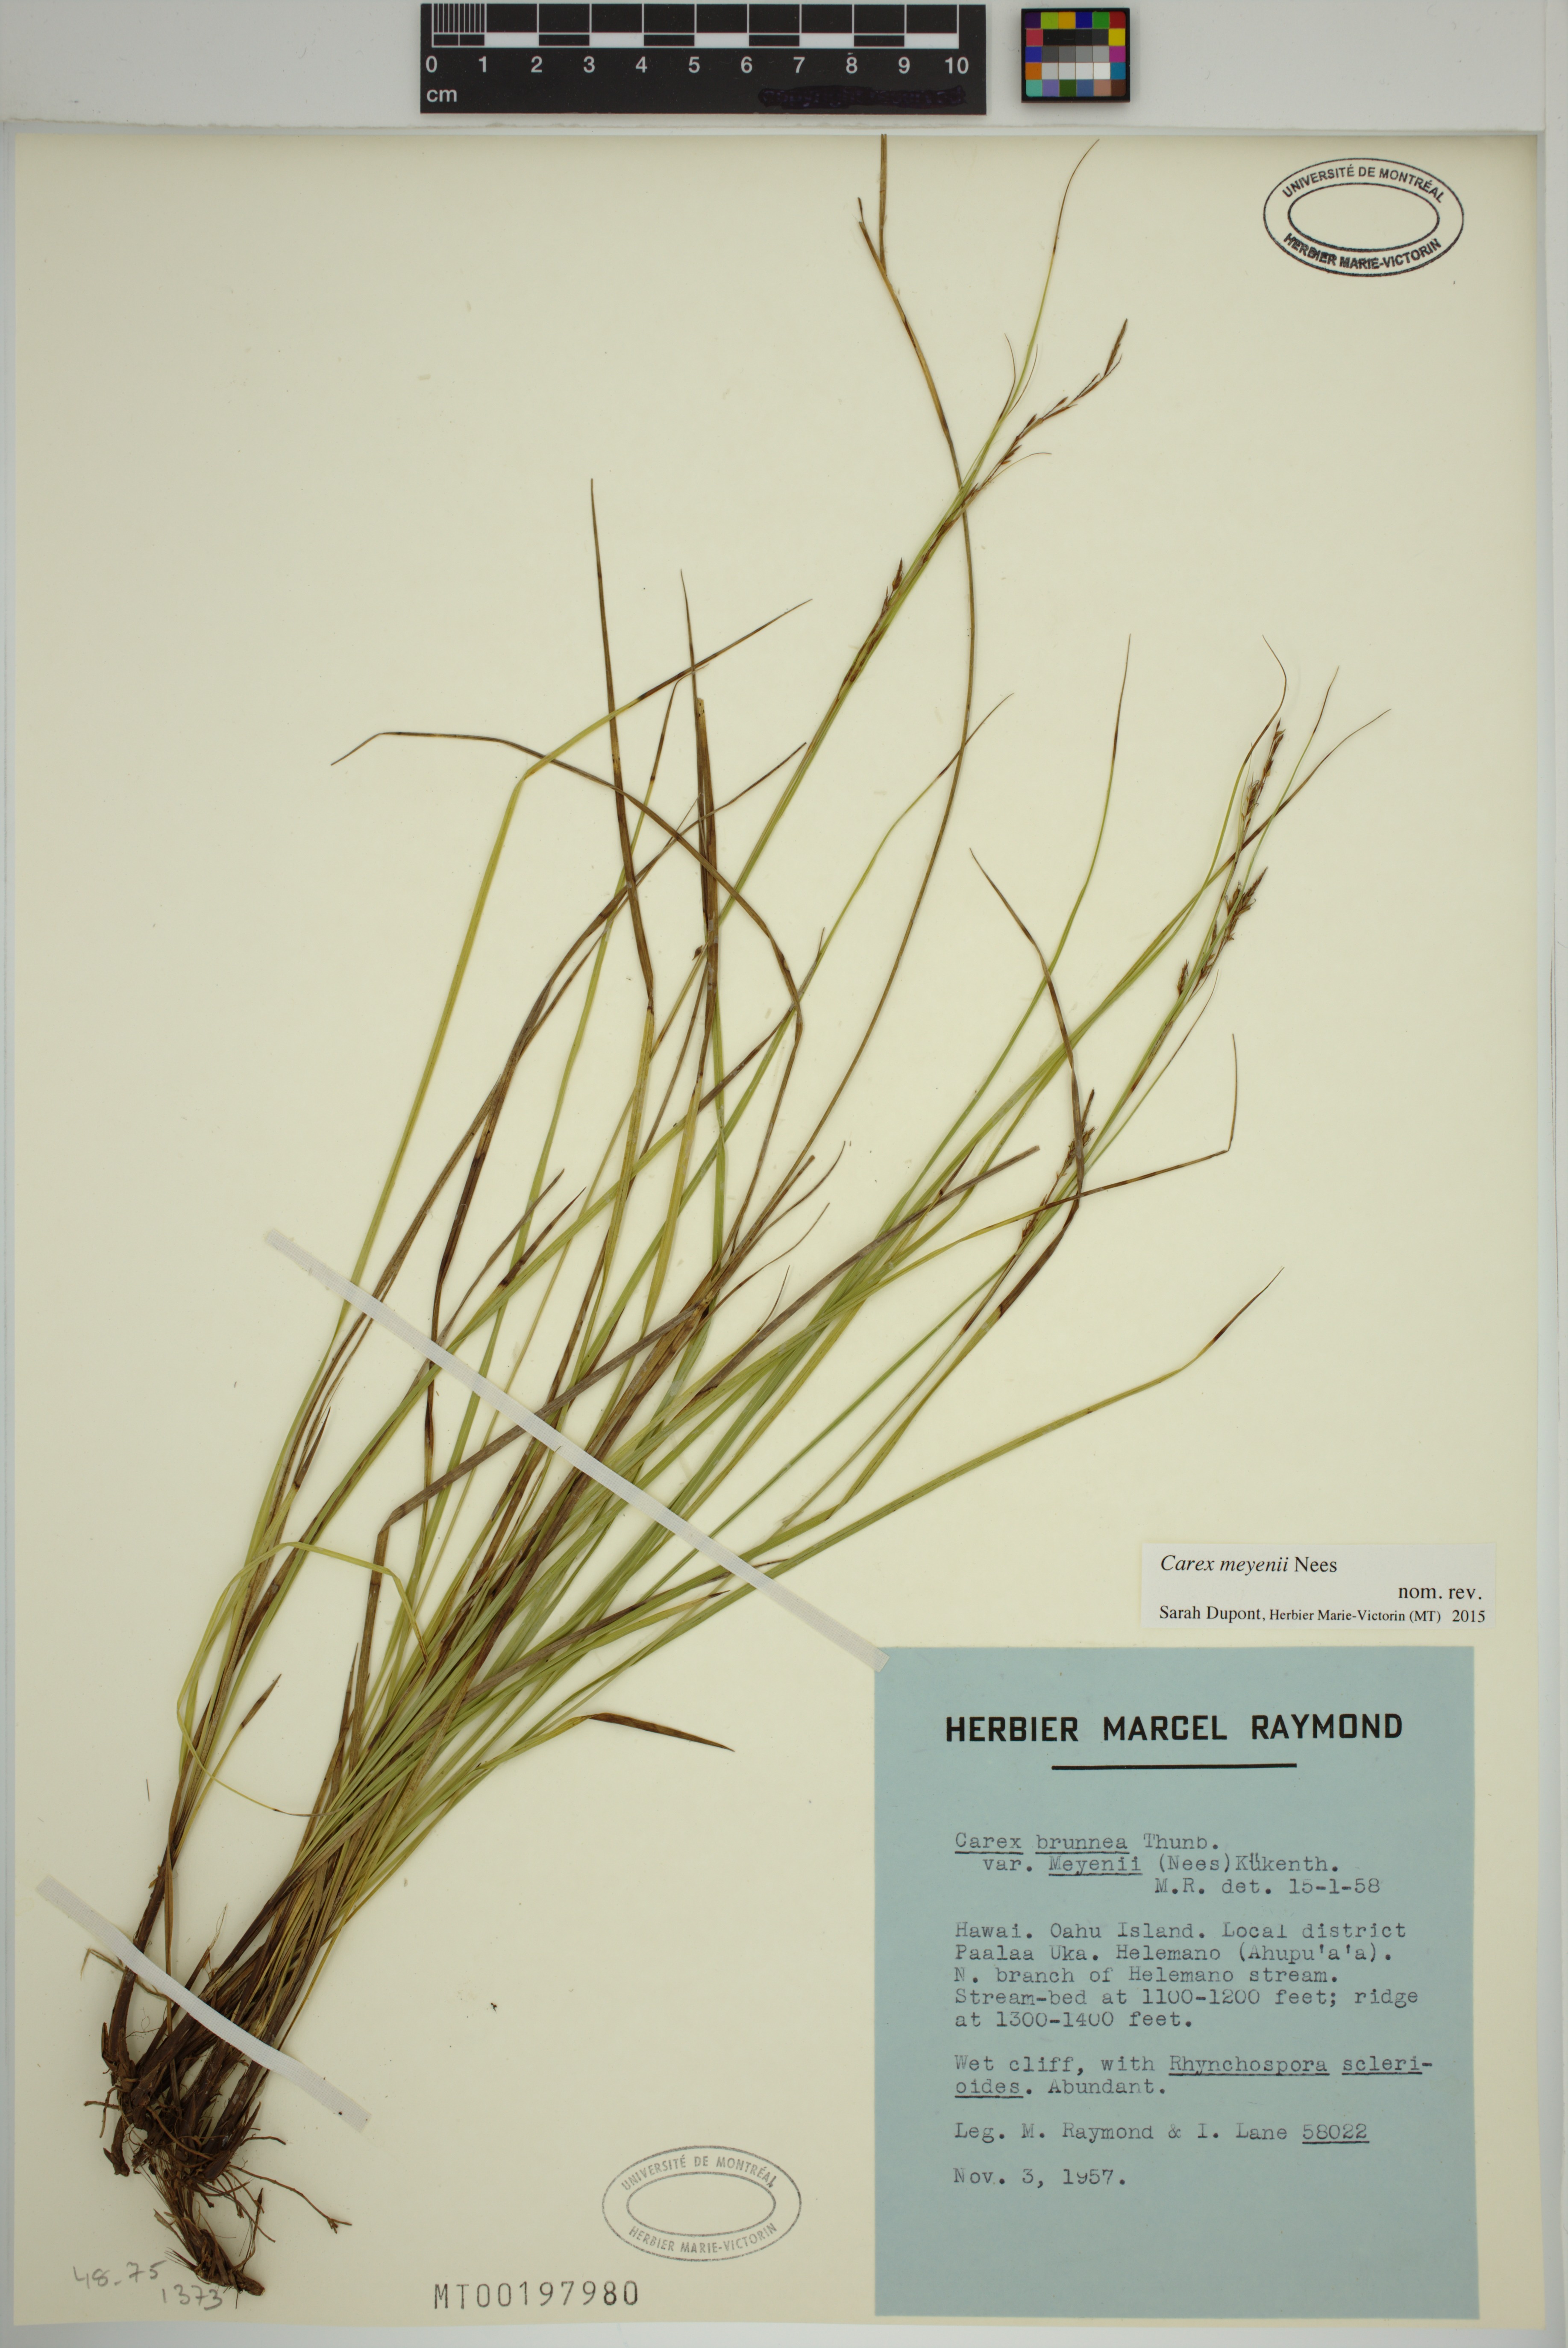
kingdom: Plantae
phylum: Tracheophyta
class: Liliopsida
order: Poales
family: Cyperaceae
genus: Carex
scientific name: Carex meyenii
